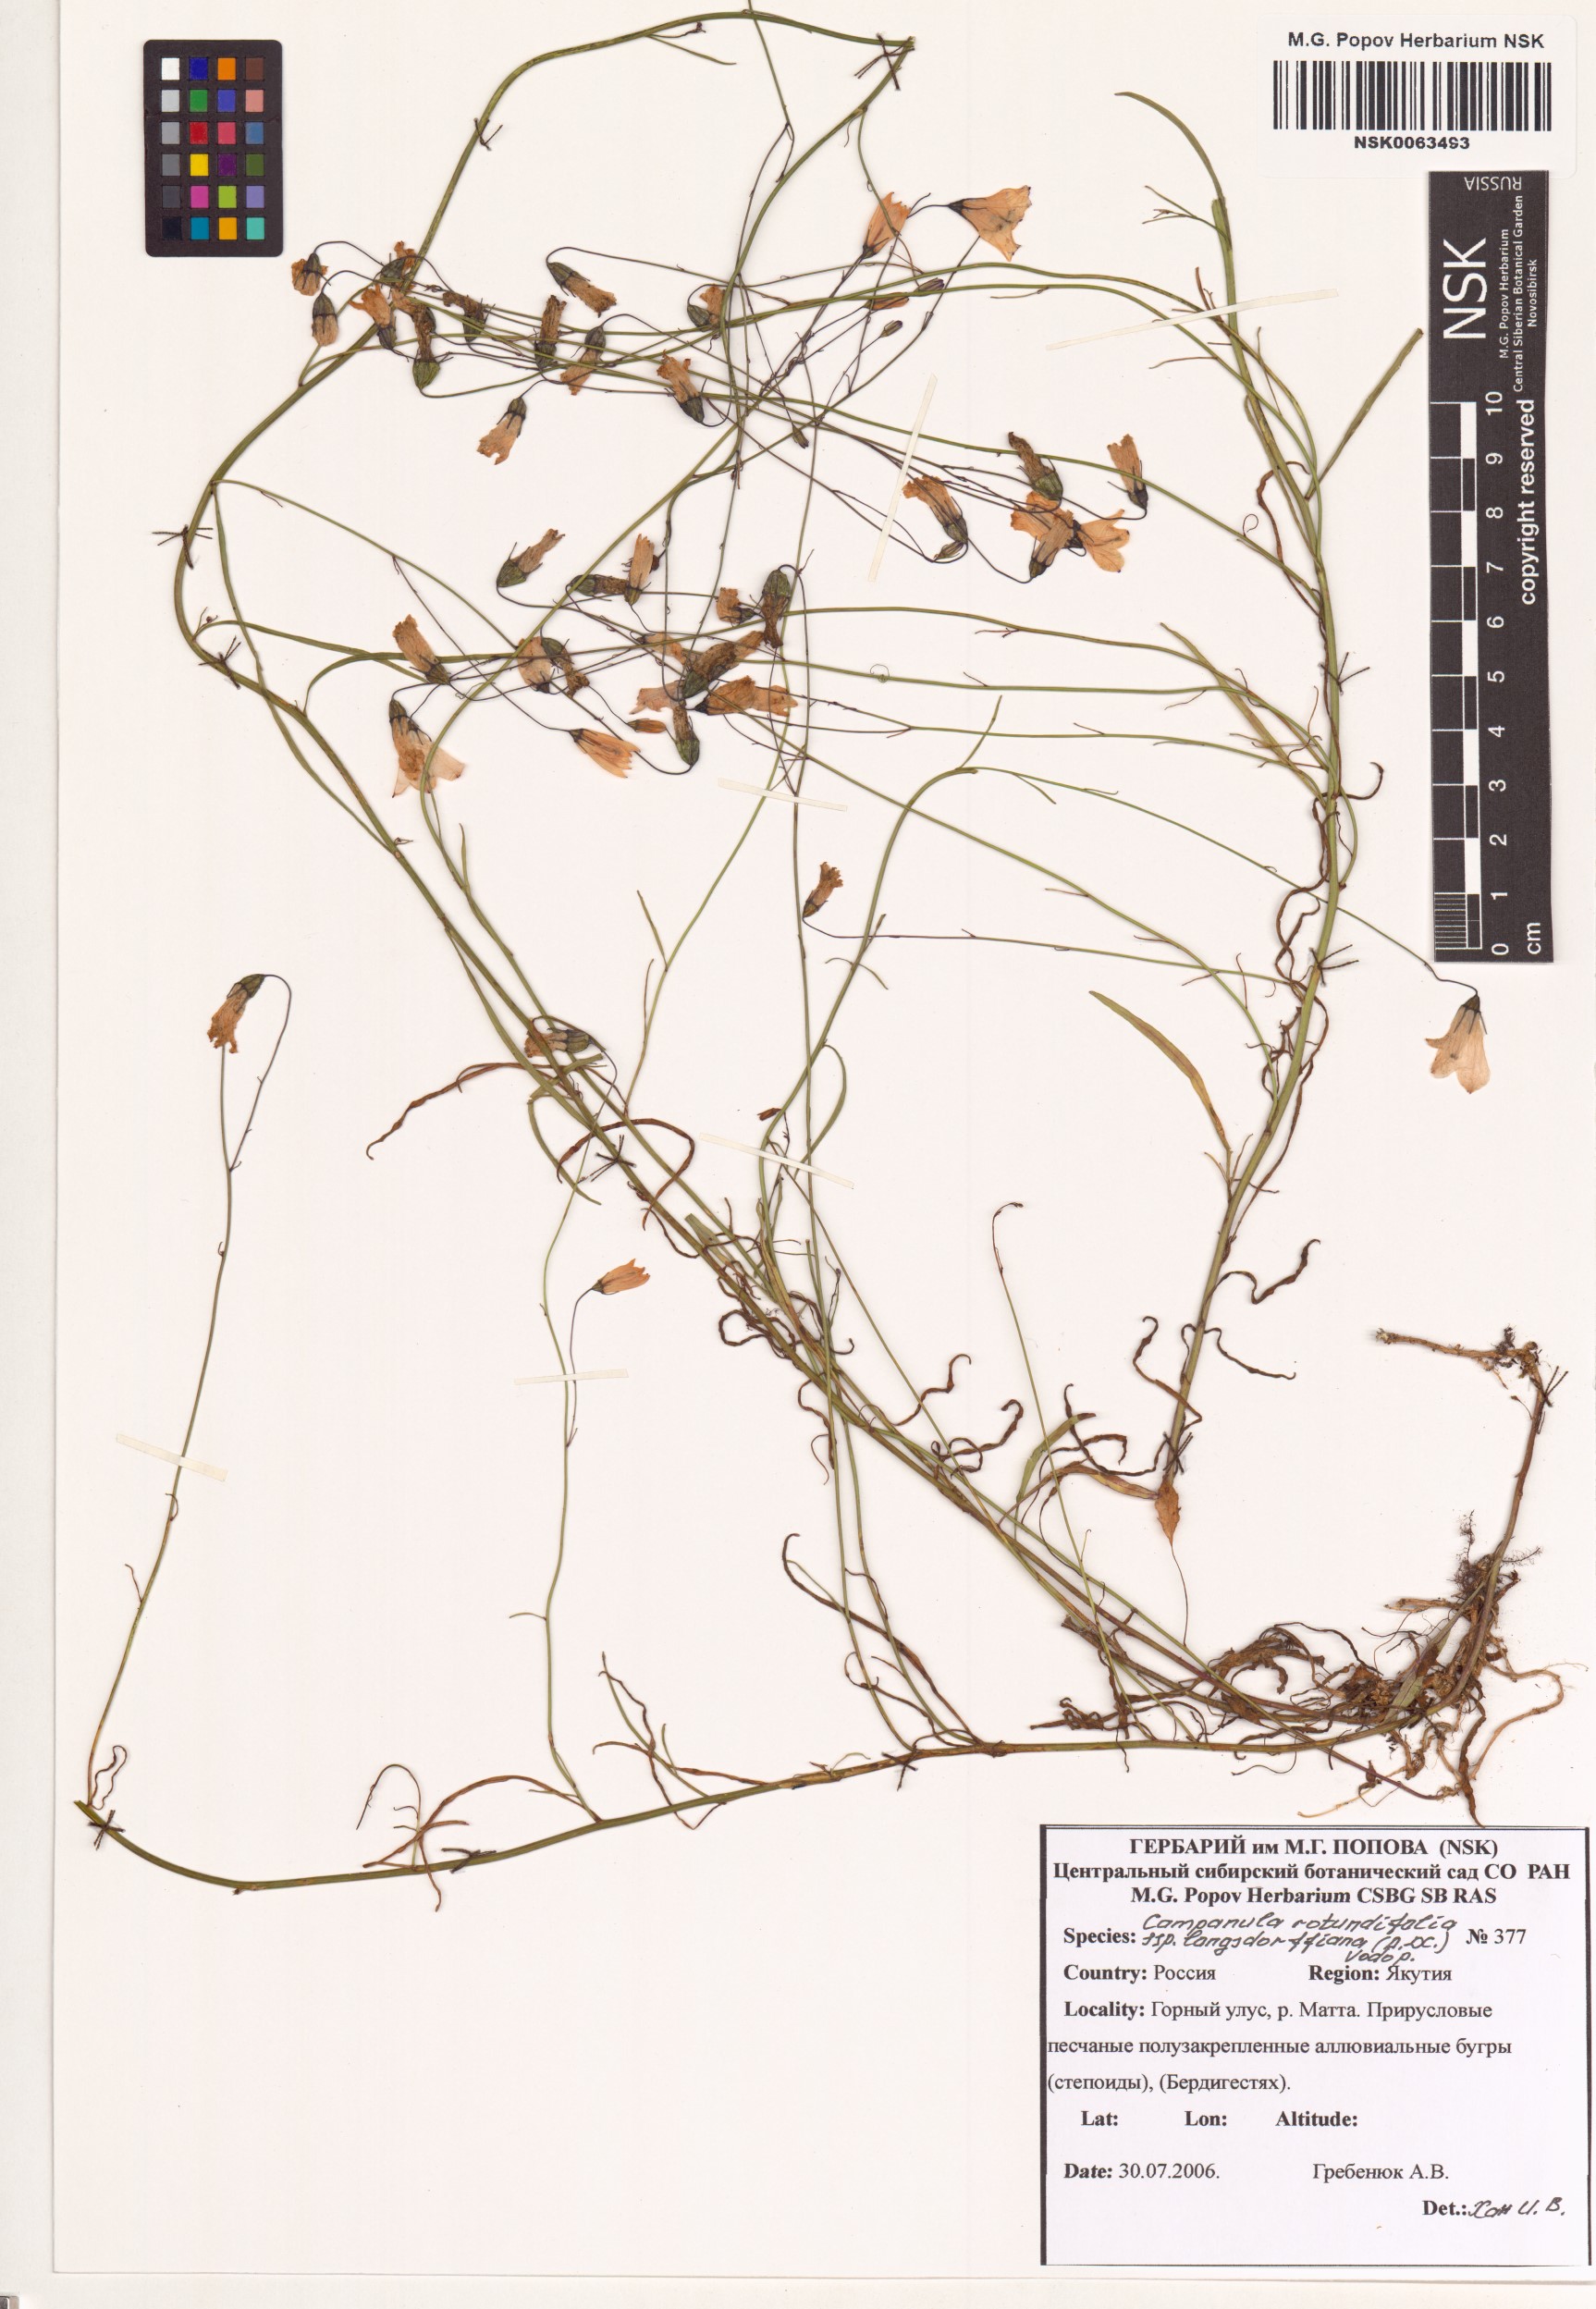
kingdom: Plantae
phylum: Tracheophyta
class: Magnoliopsida
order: Asterales
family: Campanulaceae
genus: Campanula
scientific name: Campanula rotundifolia
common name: Harebell
